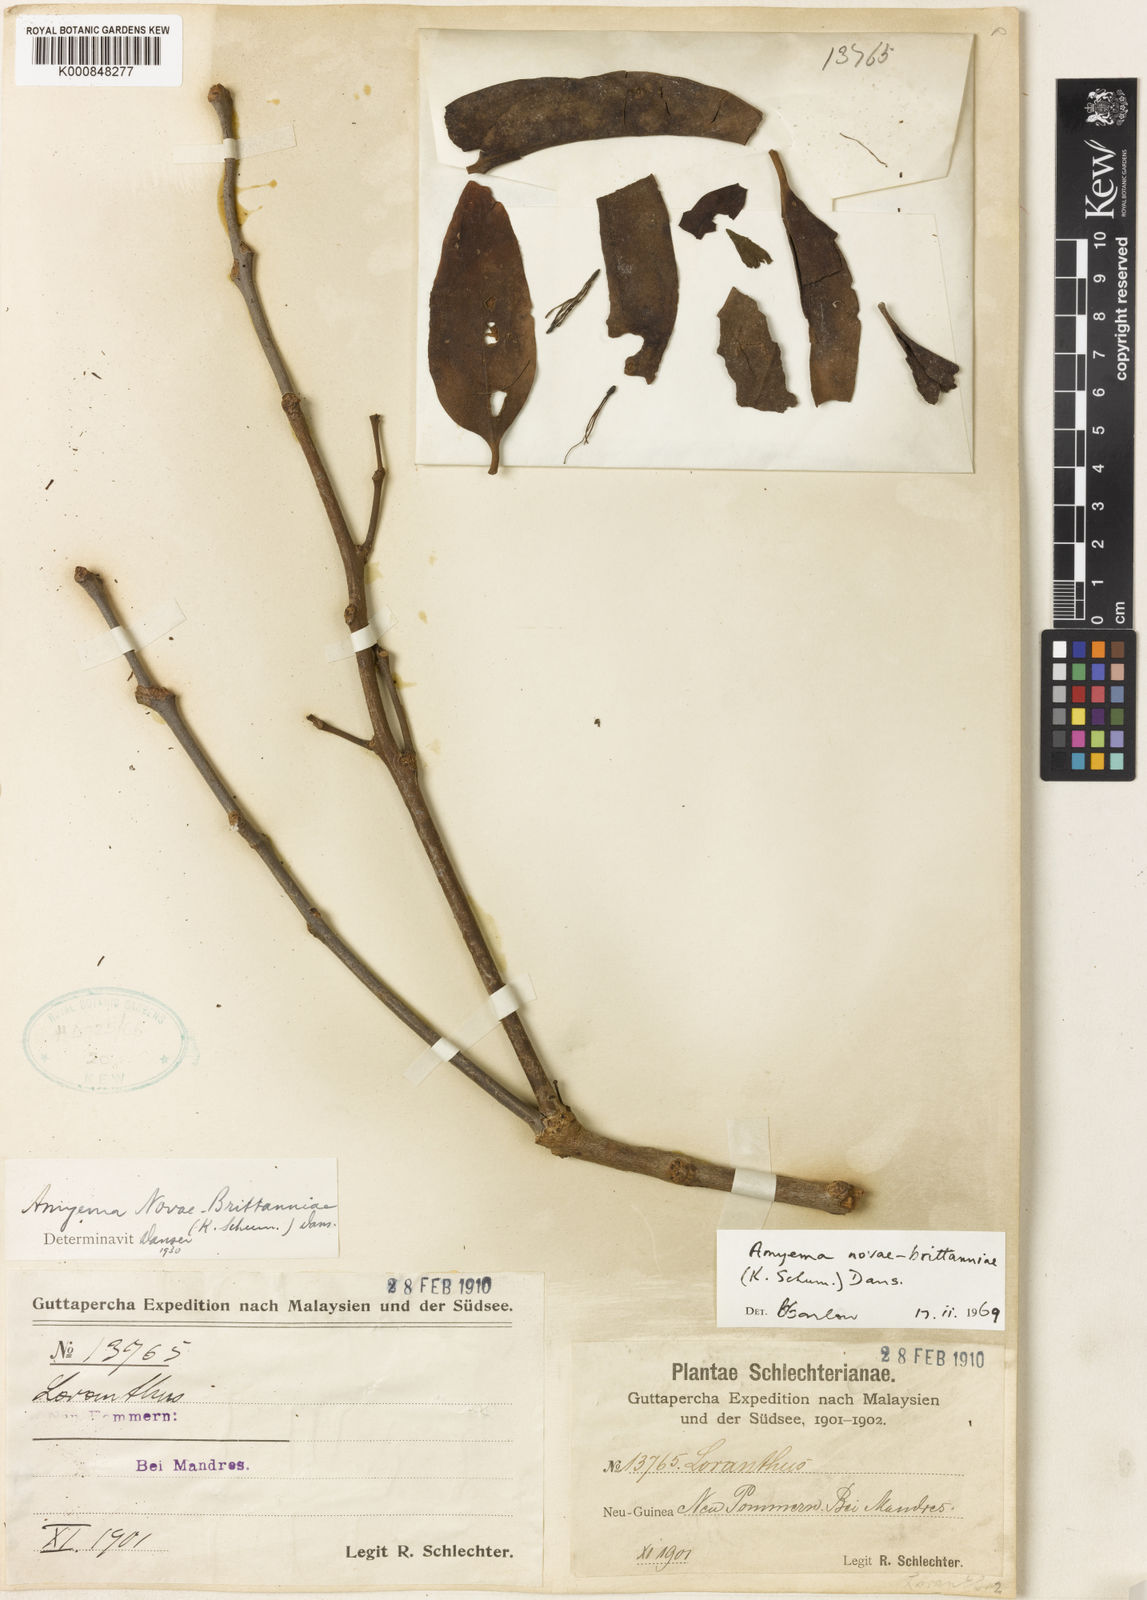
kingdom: Plantae
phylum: Tracheophyta
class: Magnoliopsida
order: Santalales
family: Loranthaceae
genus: Amyema
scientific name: Amyema novaebrittaniae
